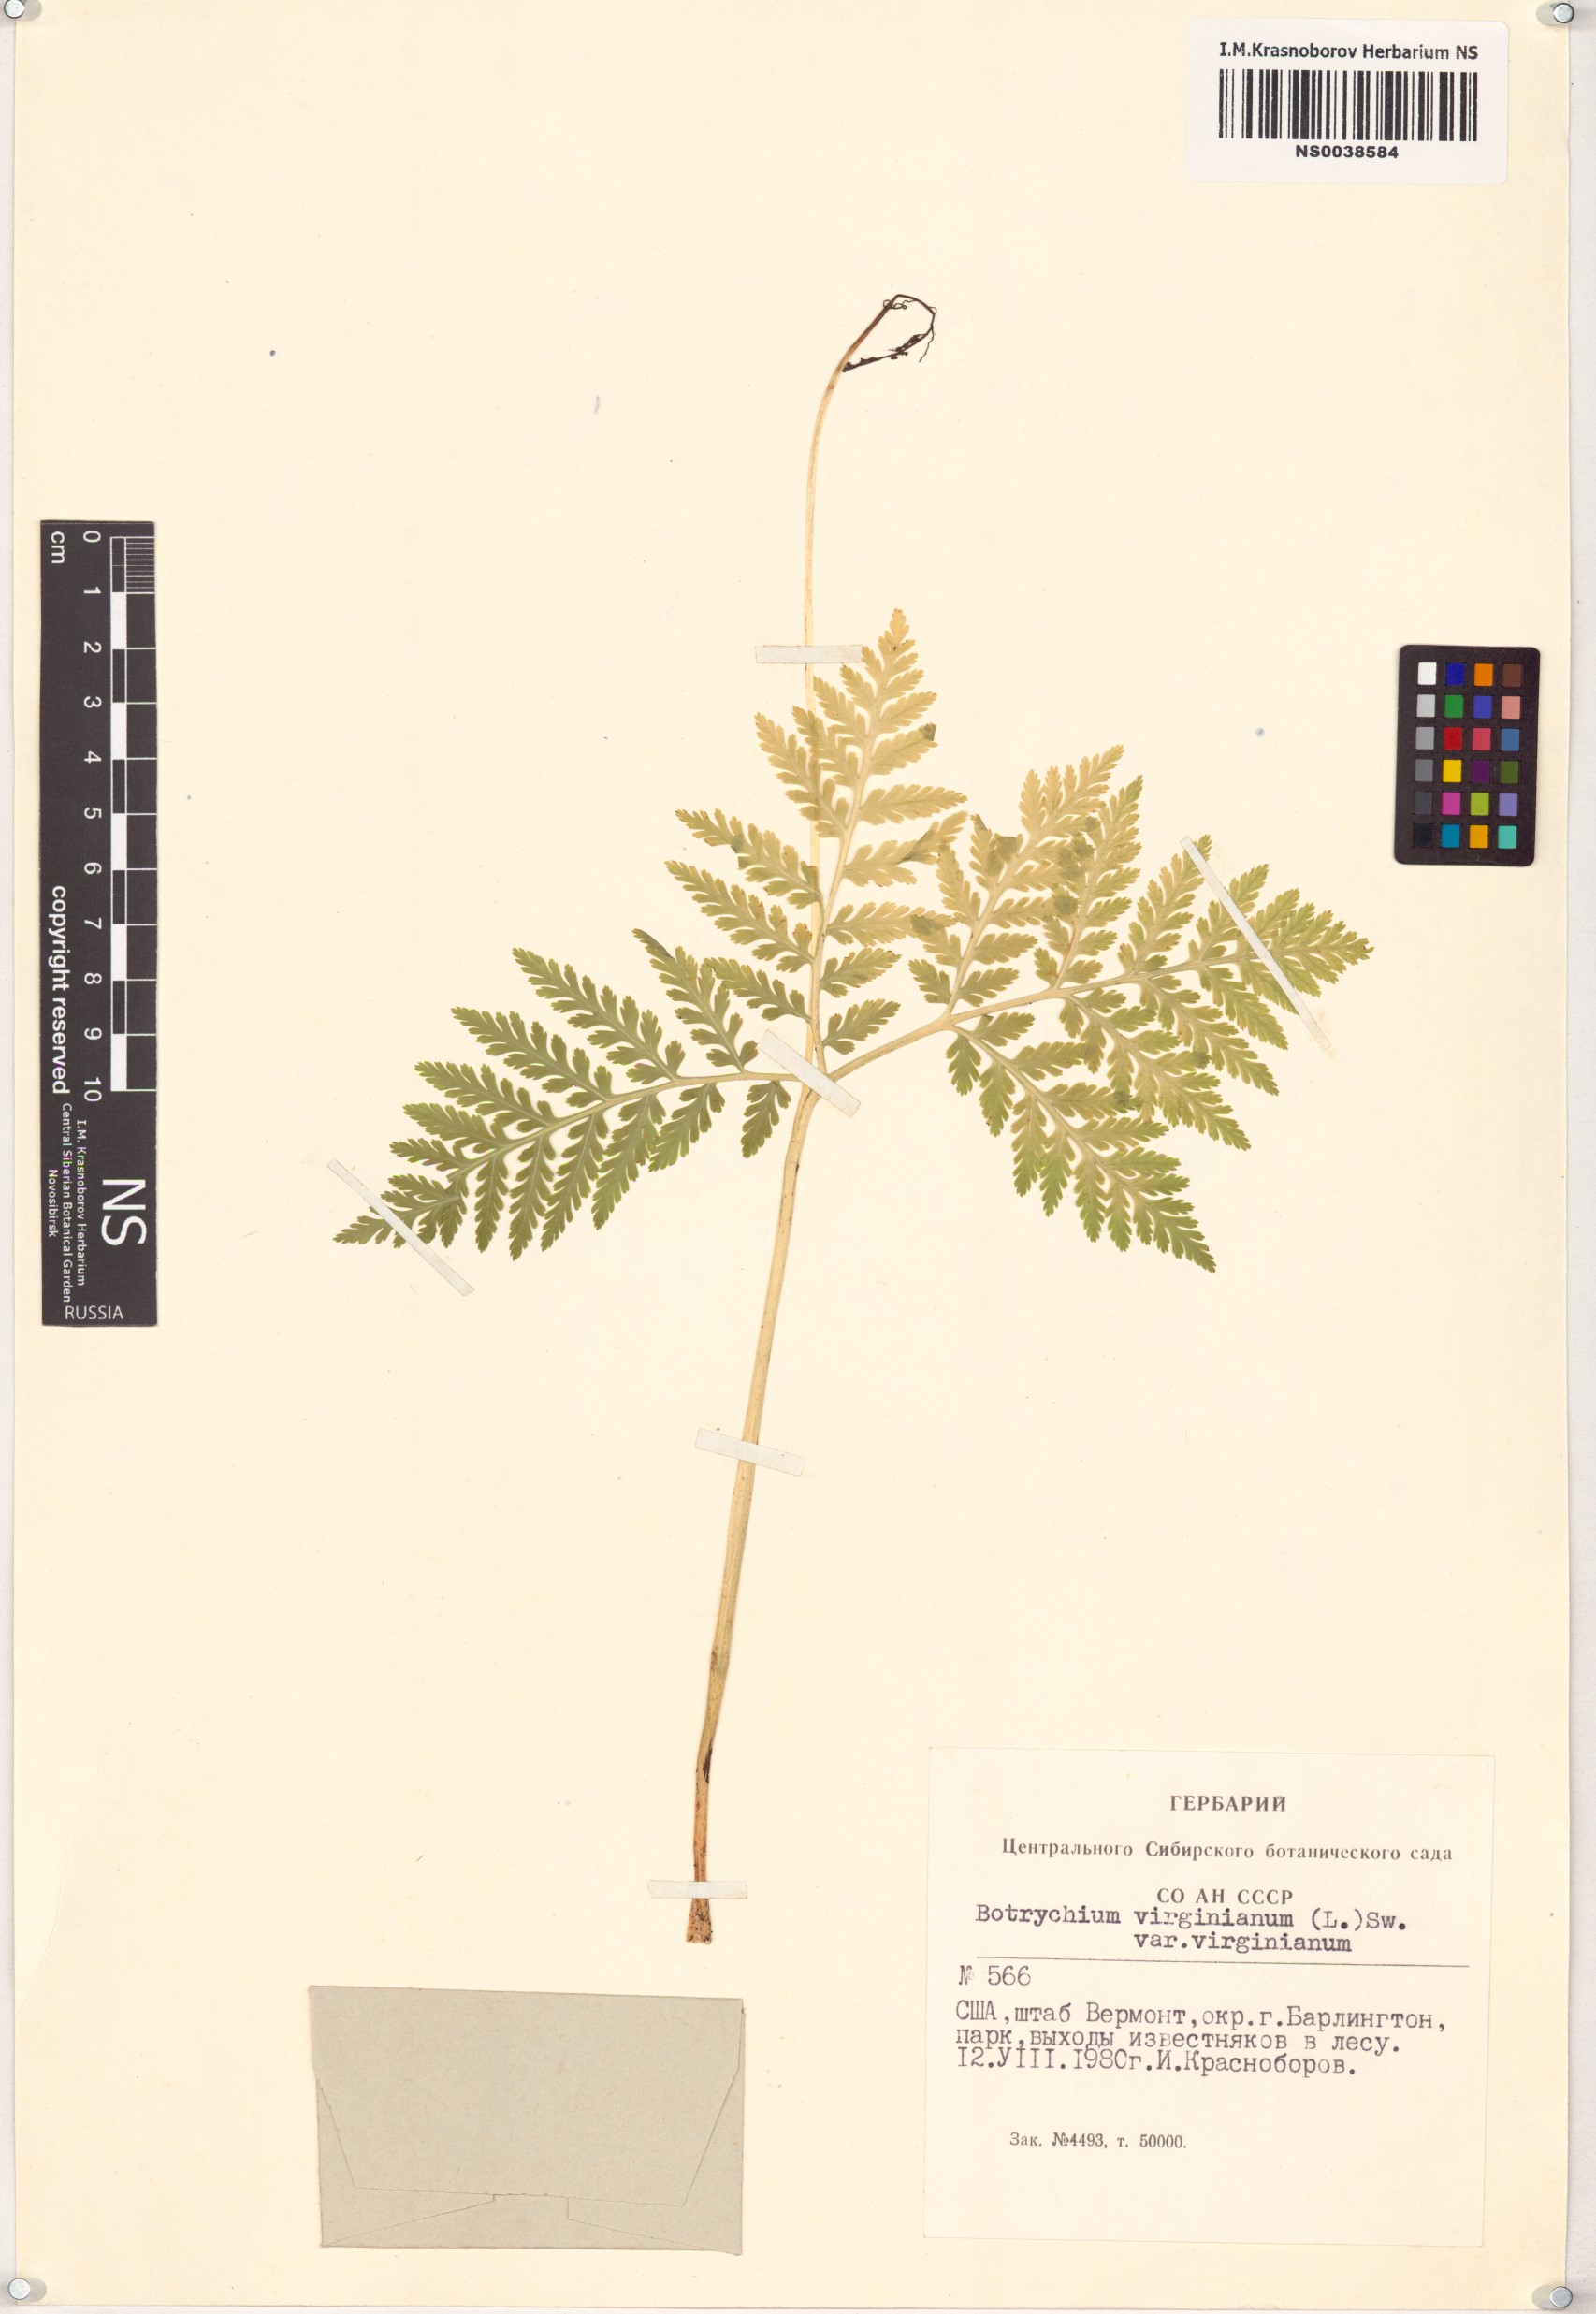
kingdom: Plantae
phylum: Tracheophyta
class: Polypodiopsida
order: Ophioglossales
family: Ophioglossaceae
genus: Botrypus
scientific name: Botrypus virginianus
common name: Common grapefern
